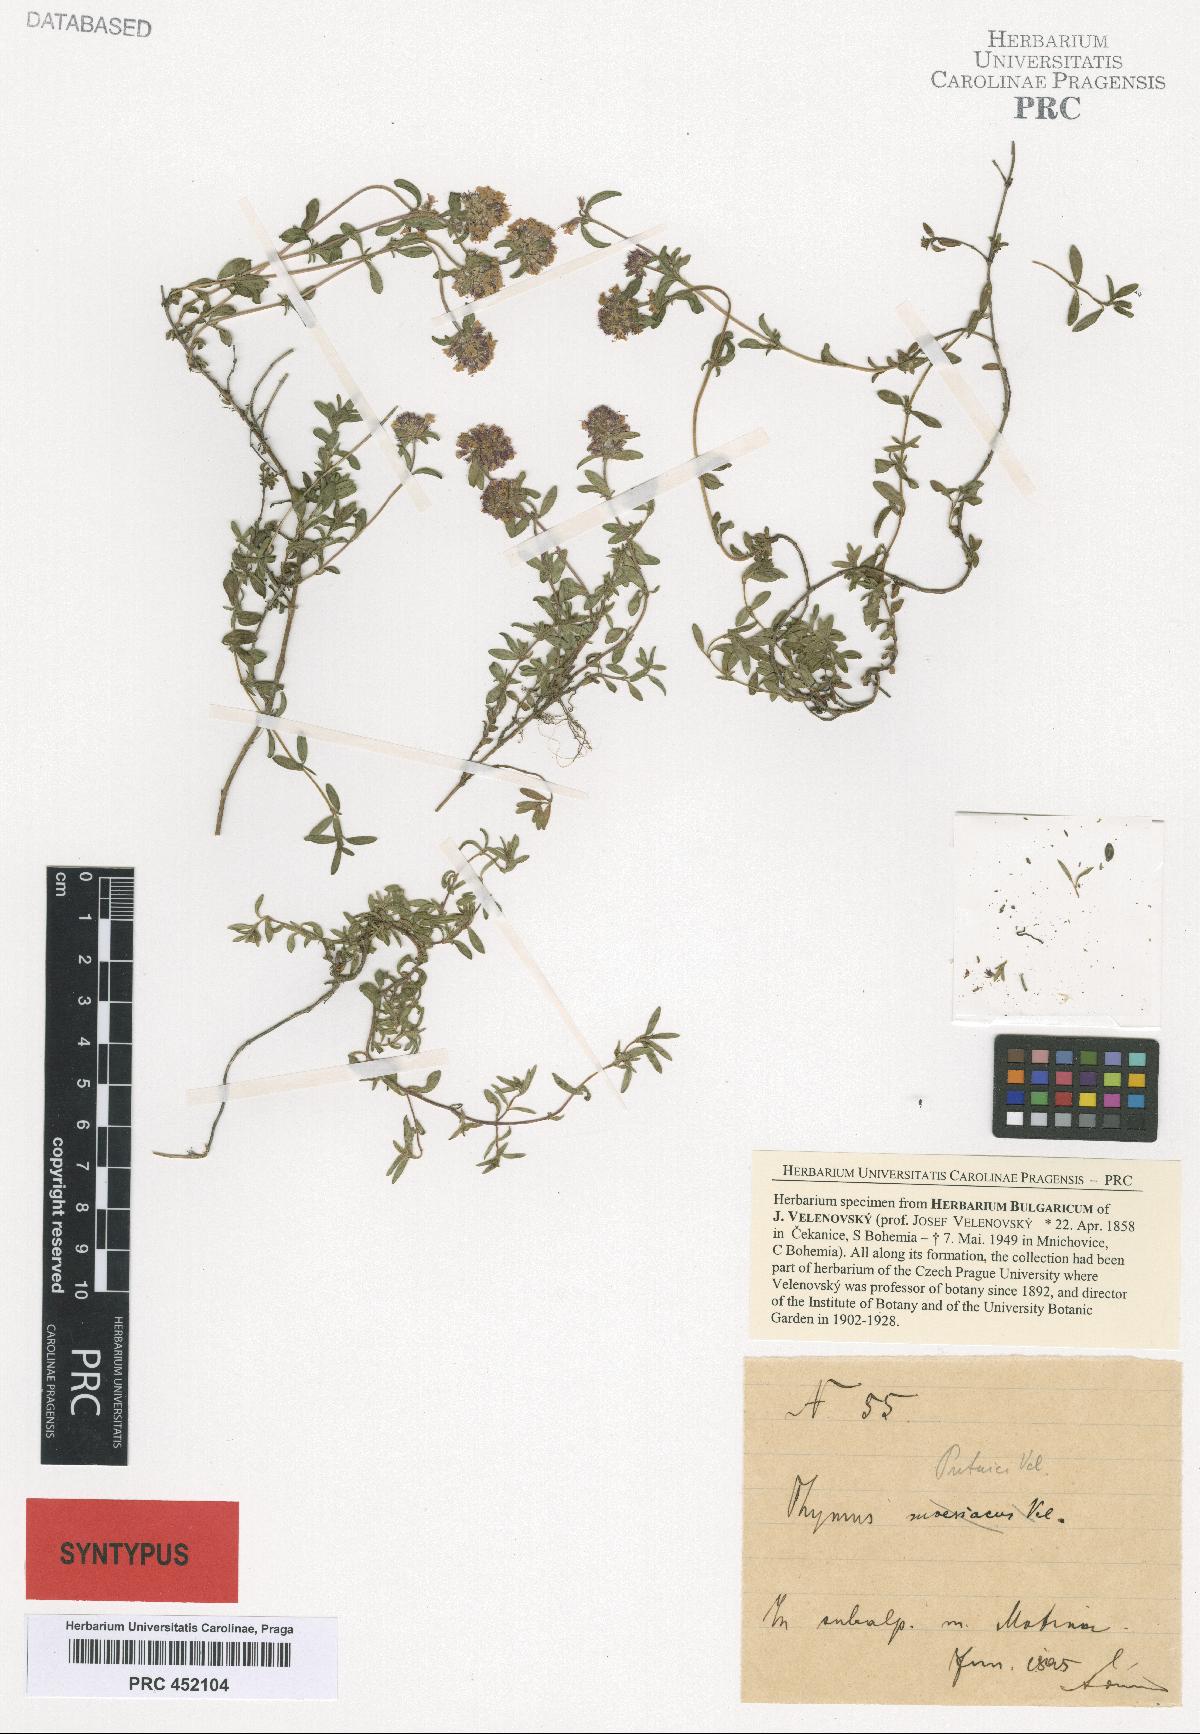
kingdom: Plantae
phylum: Tracheophyta
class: Magnoliopsida
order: Lamiales
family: Lamiaceae
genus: Thymus
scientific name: Thymus longicaulis
